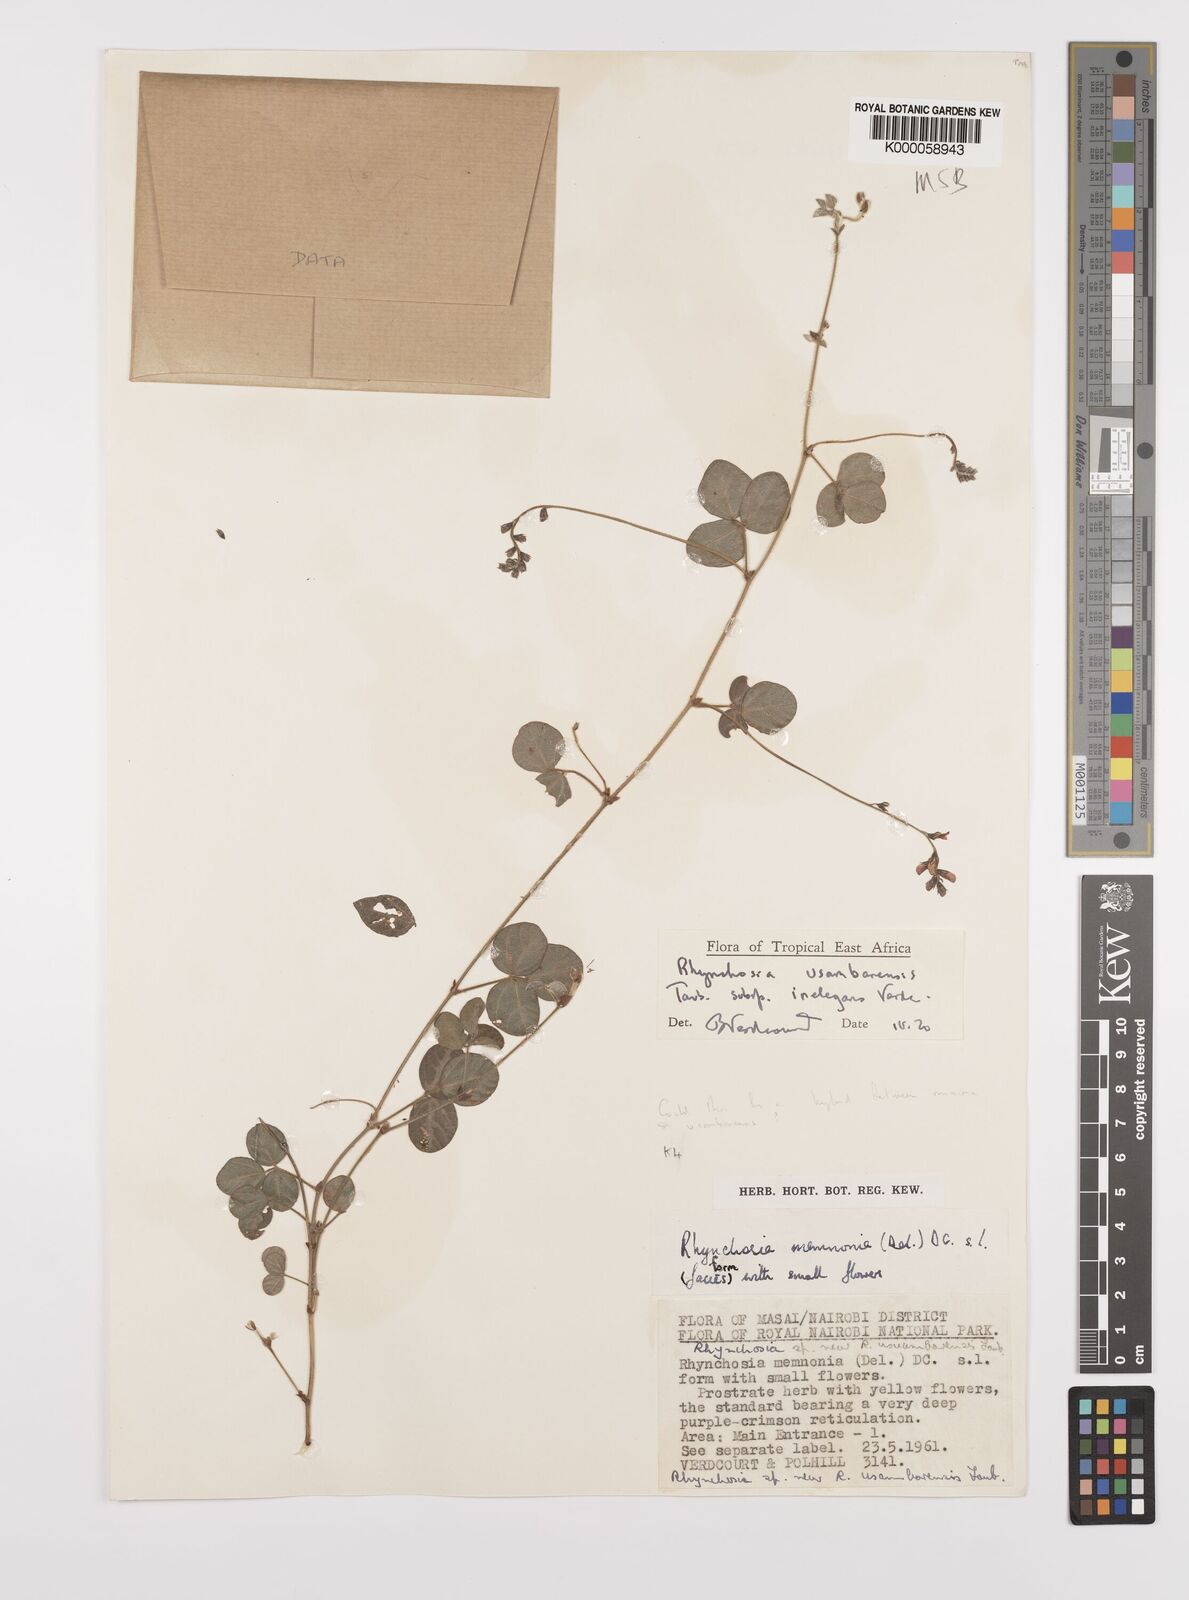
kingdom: Plantae
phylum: Tracheophyta
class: Magnoliopsida
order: Fabales
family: Fabaceae
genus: Rhynchosia
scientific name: Rhynchosia usambarensis
